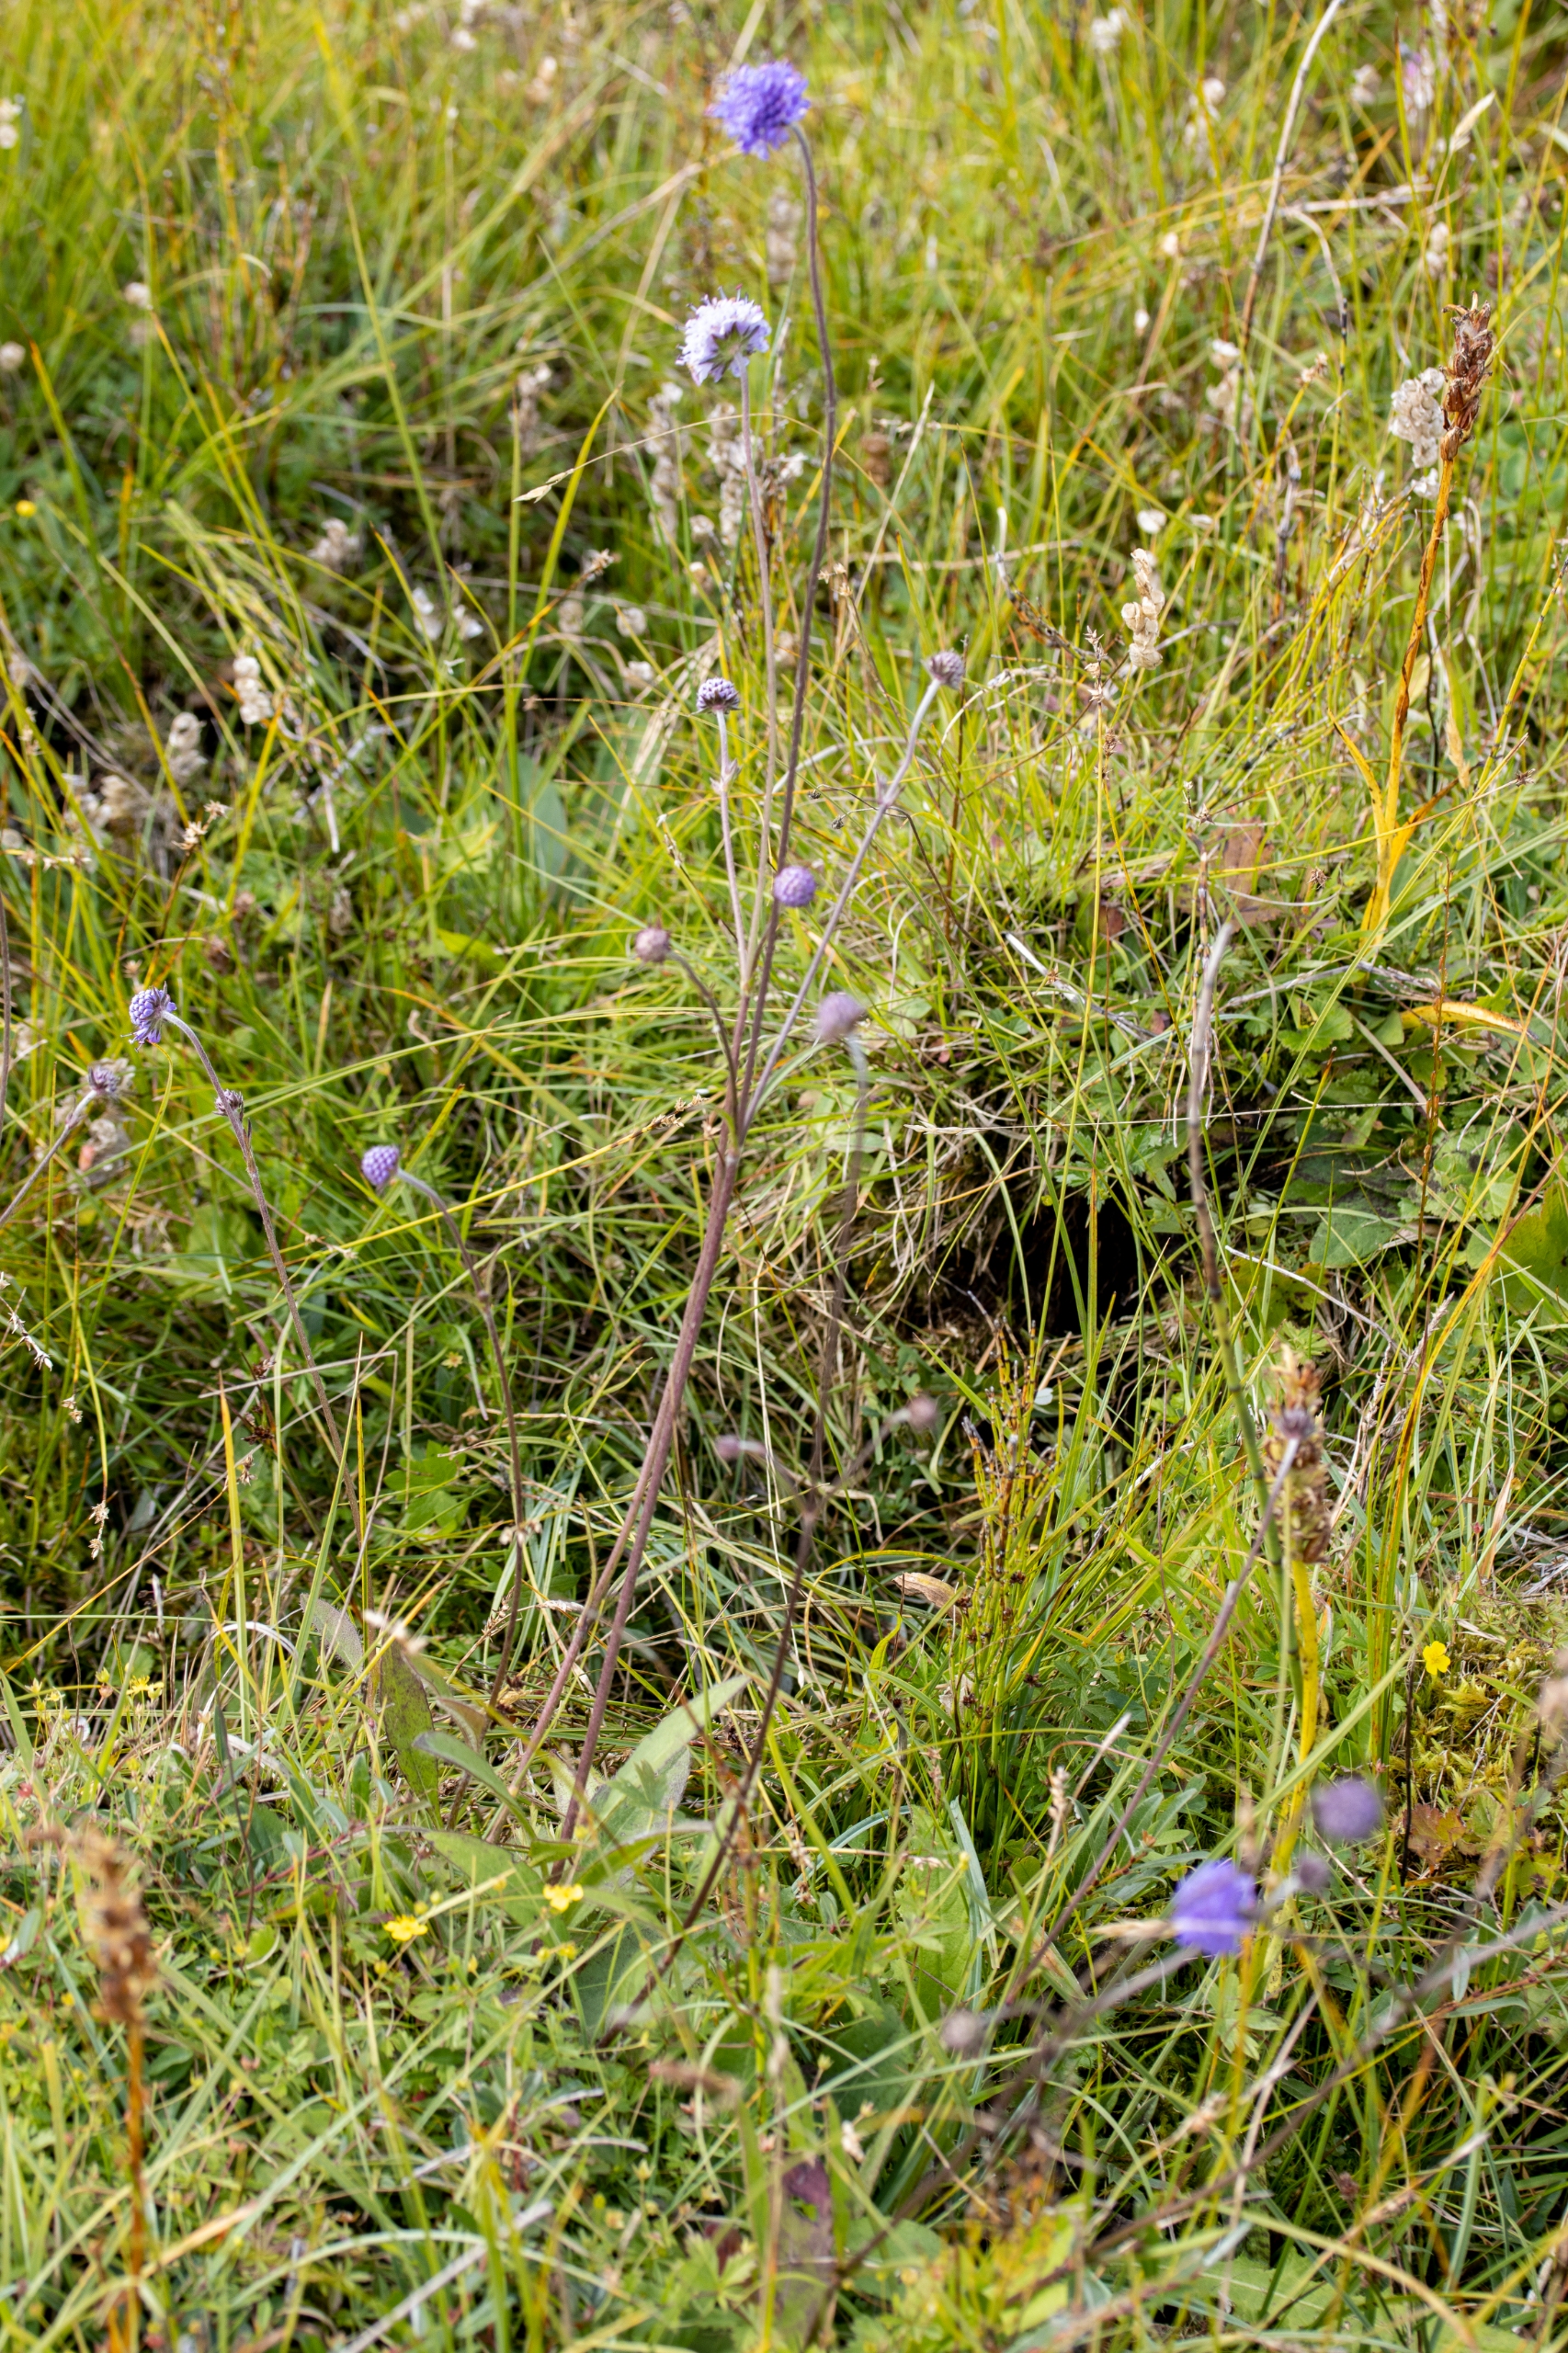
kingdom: Plantae
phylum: Tracheophyta
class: Magnoliopsida
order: Dipsacales
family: Caprifoliaceae
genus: Succisa
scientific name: Succisa pratensis
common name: Djævelsbid
